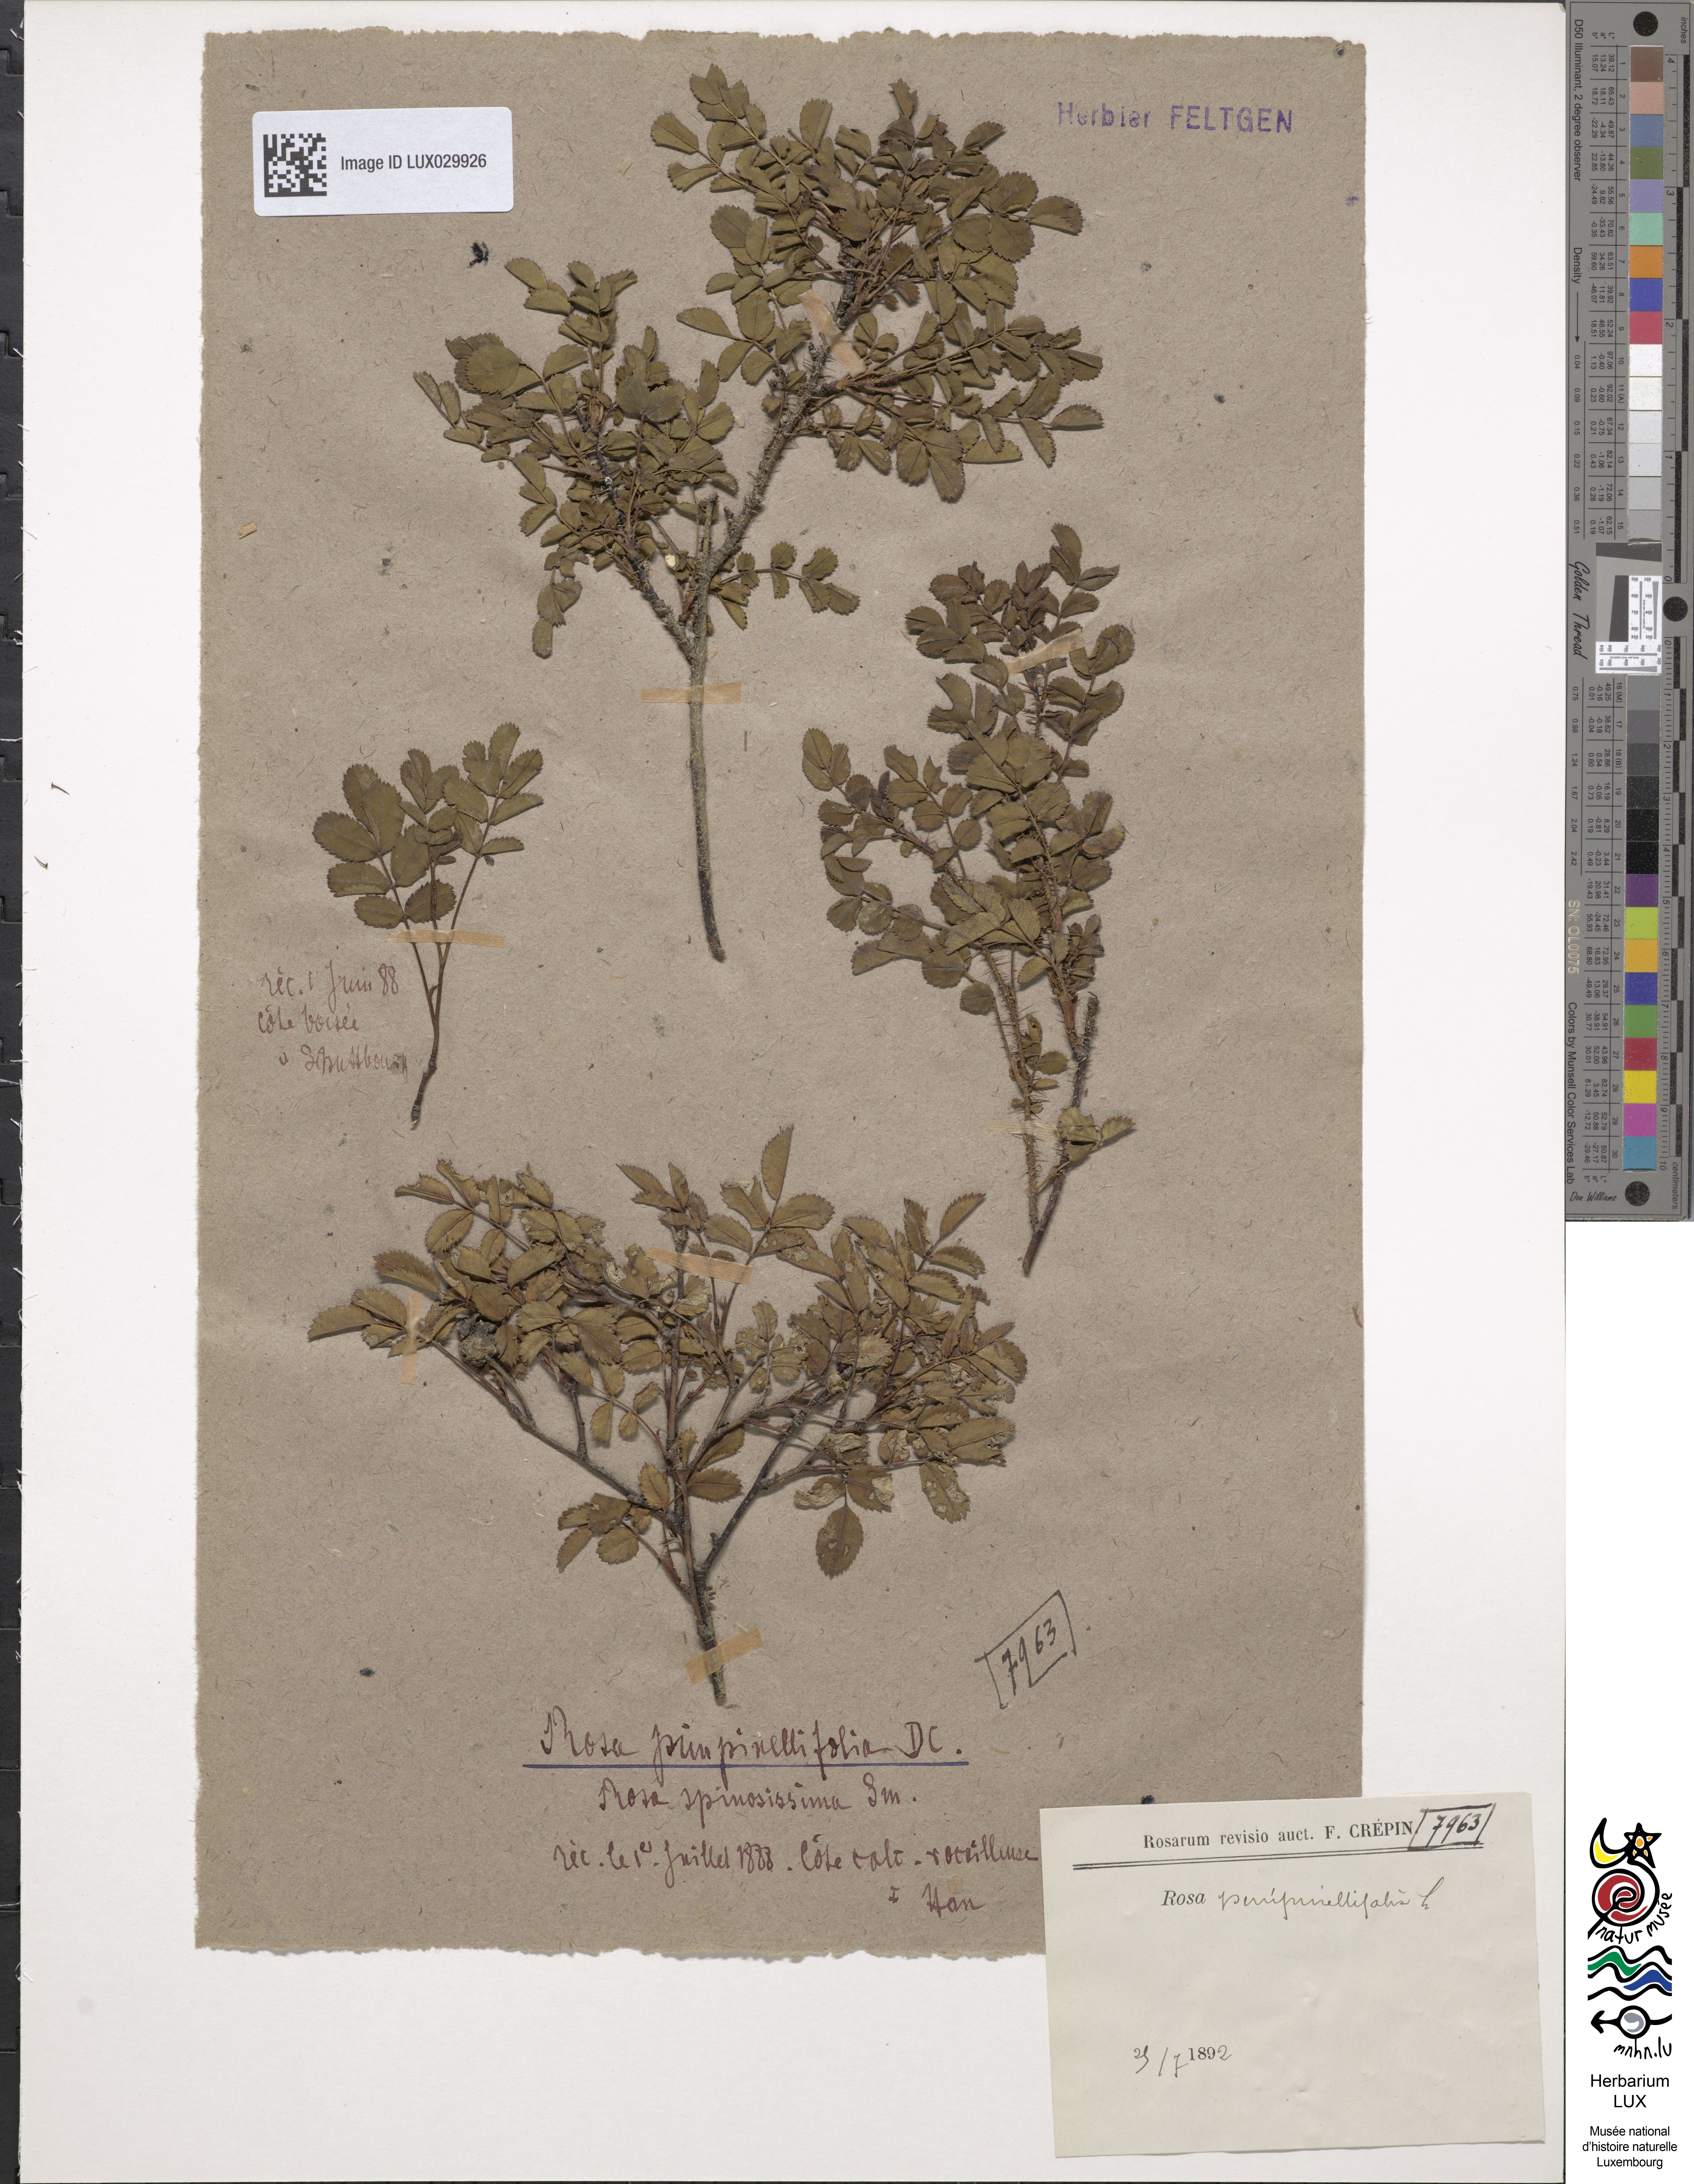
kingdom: Plantae
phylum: Tracheophyta
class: Magnoliopsida
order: Rosales
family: Rosaceae
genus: Rosa
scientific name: Rosa
